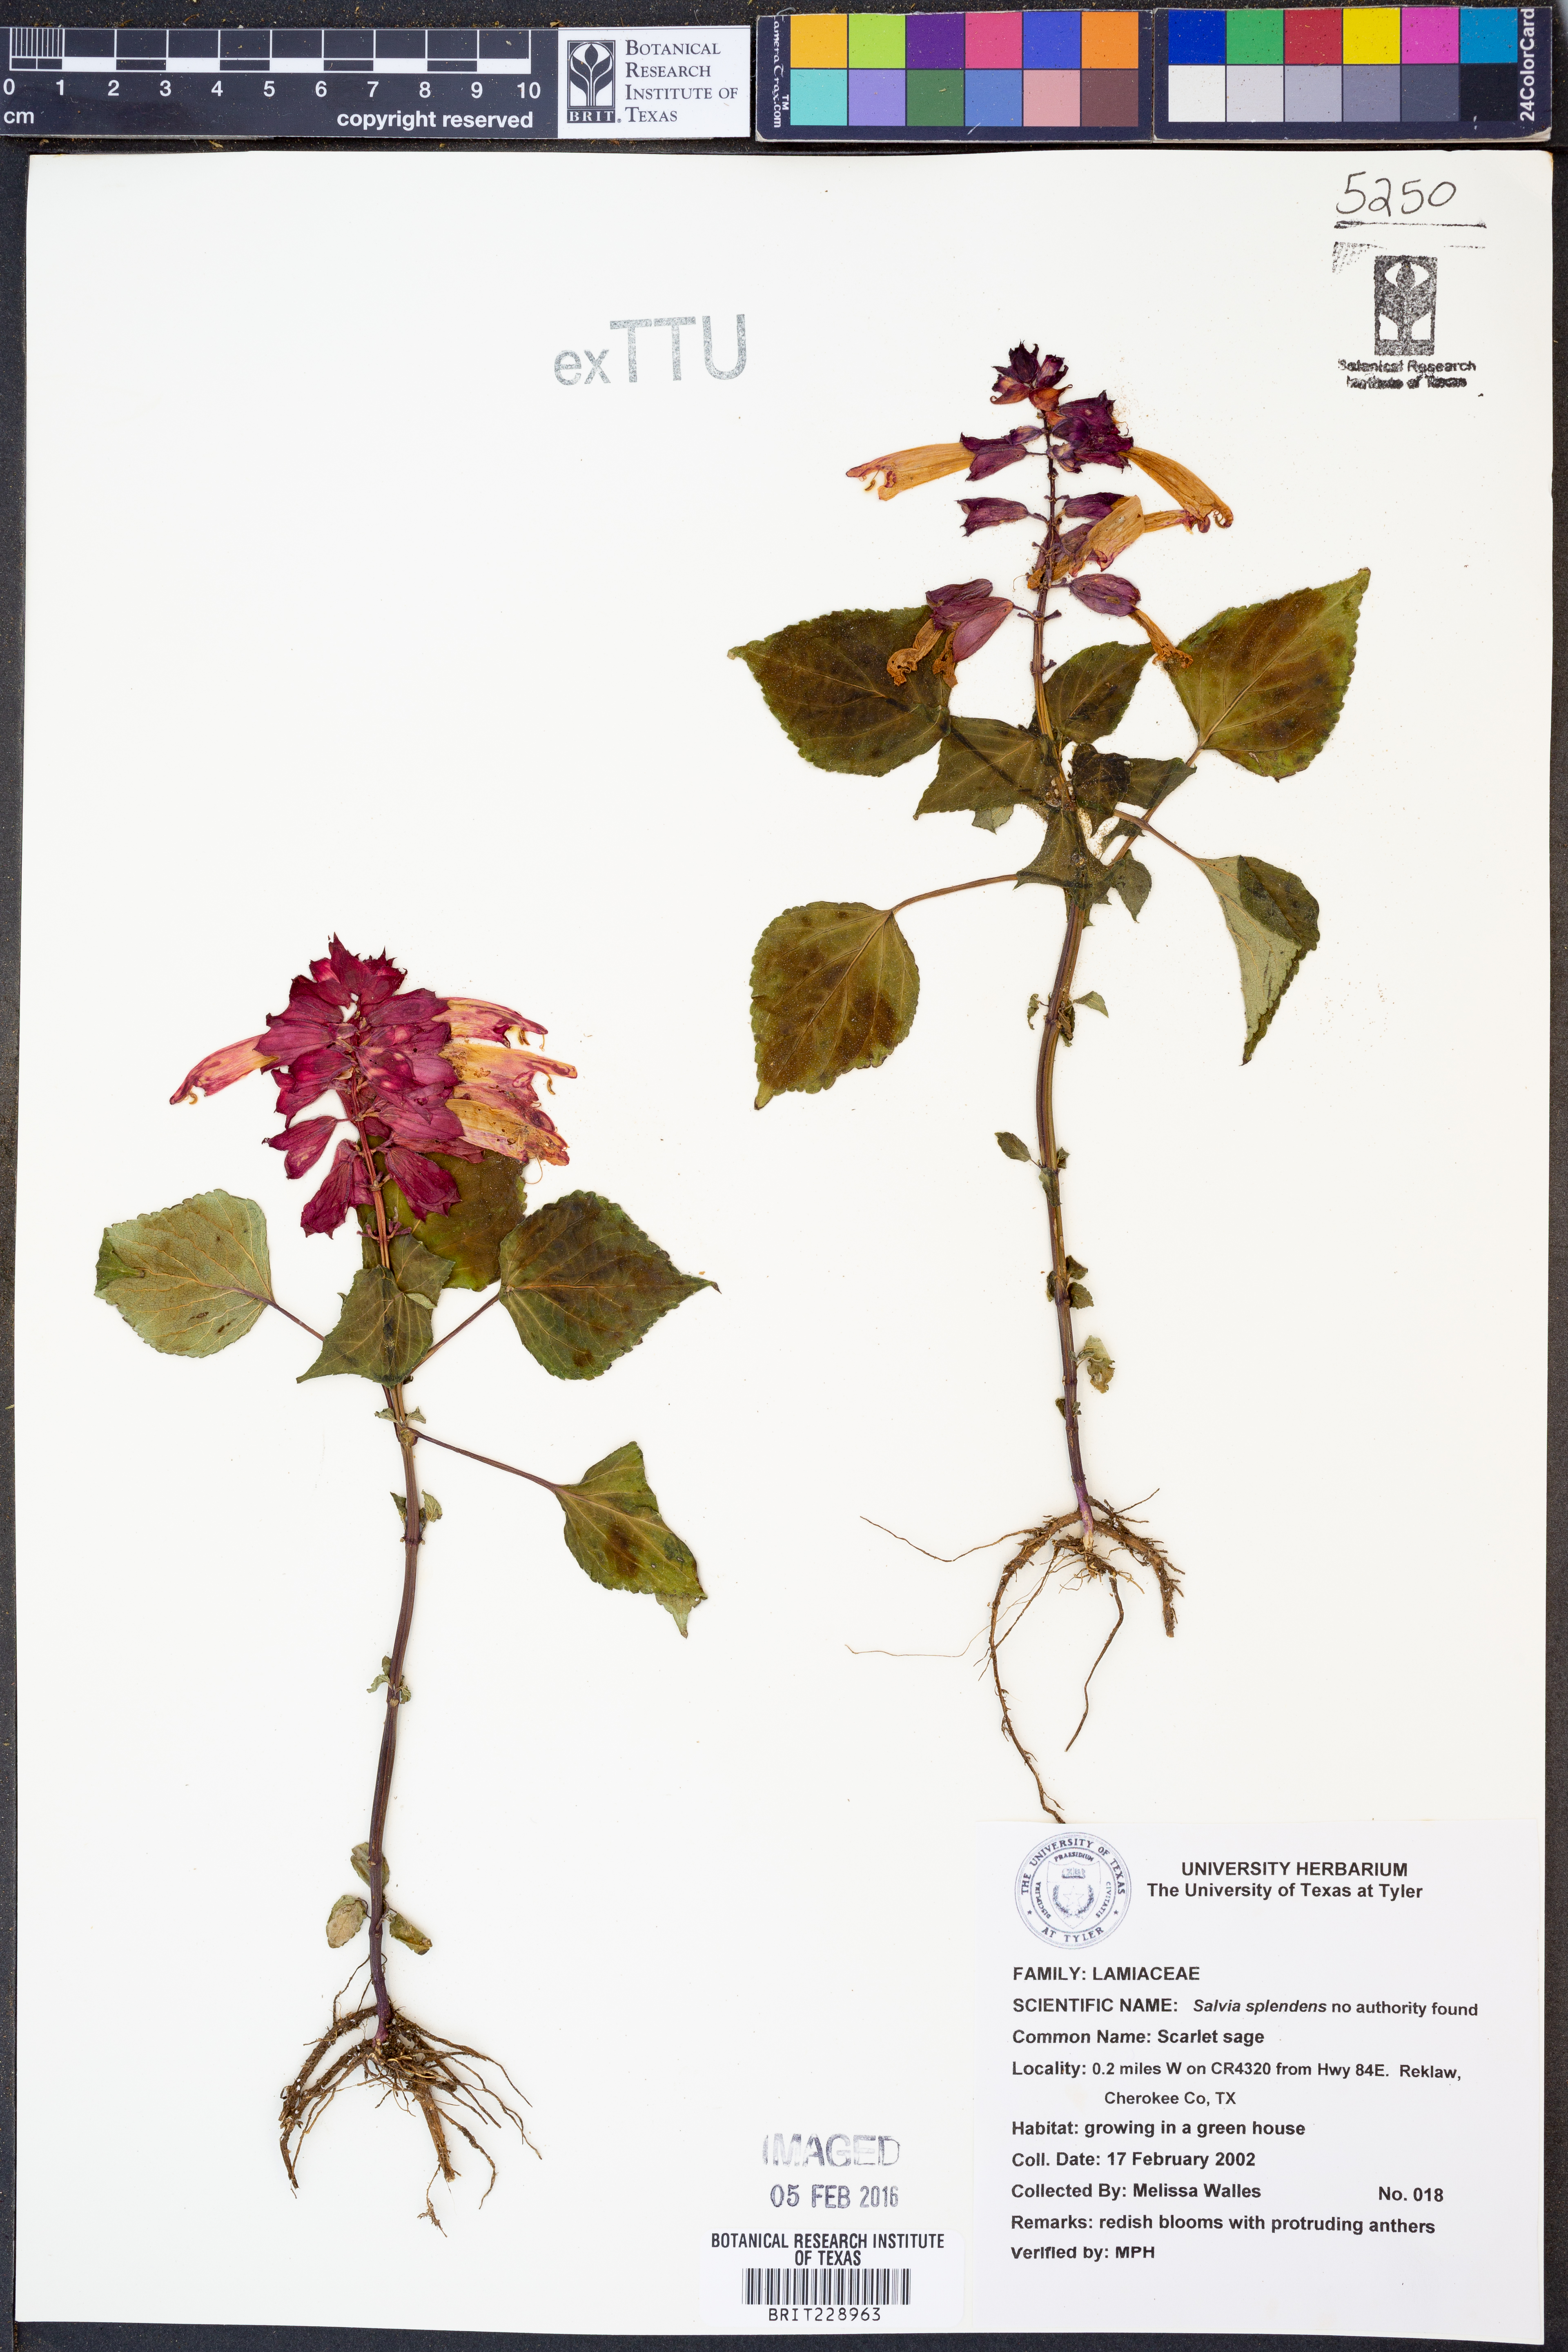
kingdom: Plantae
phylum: Tracheophyta
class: Magnoliopsida
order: Lamiales
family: Lamiaceae
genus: Salvia
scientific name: Salvia splendens
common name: Scarlet sage
